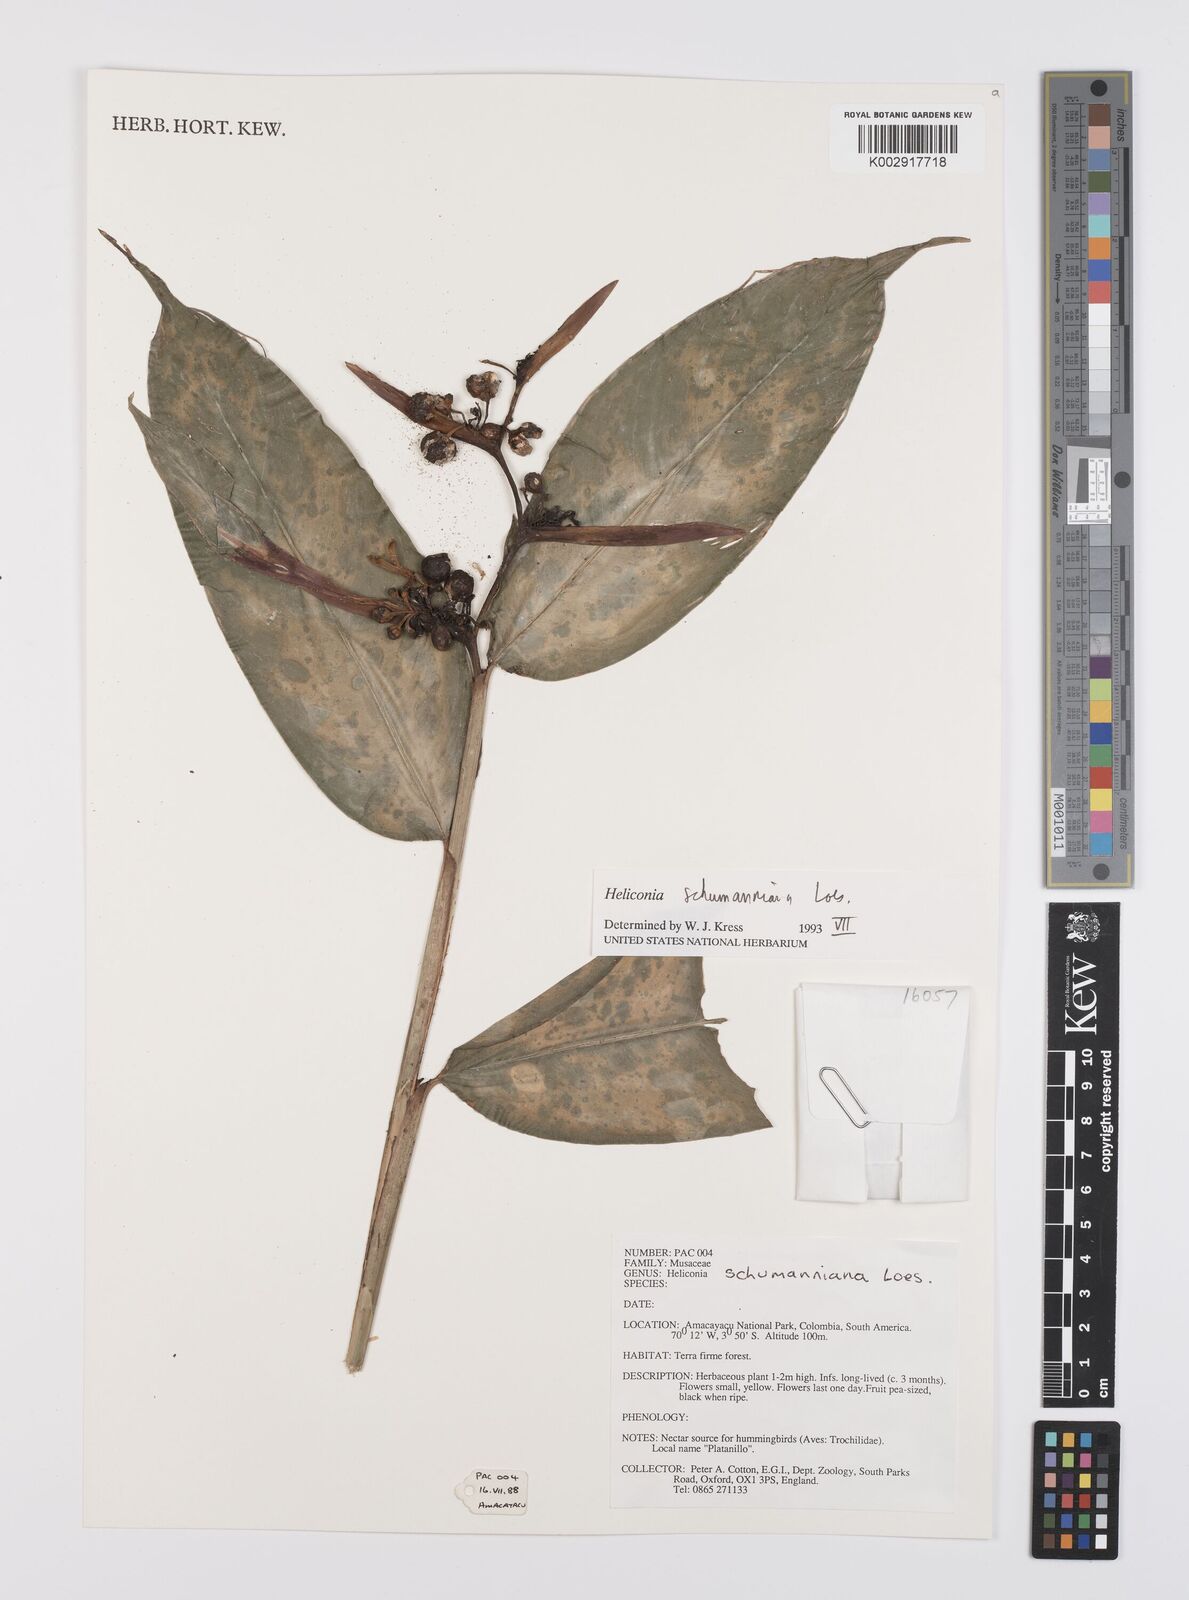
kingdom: Plantae
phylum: Tracheophyta
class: Liliopsida
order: Zingiberales
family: Heliconiaceae
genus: Heliconia
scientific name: Heliconia schumanniana
